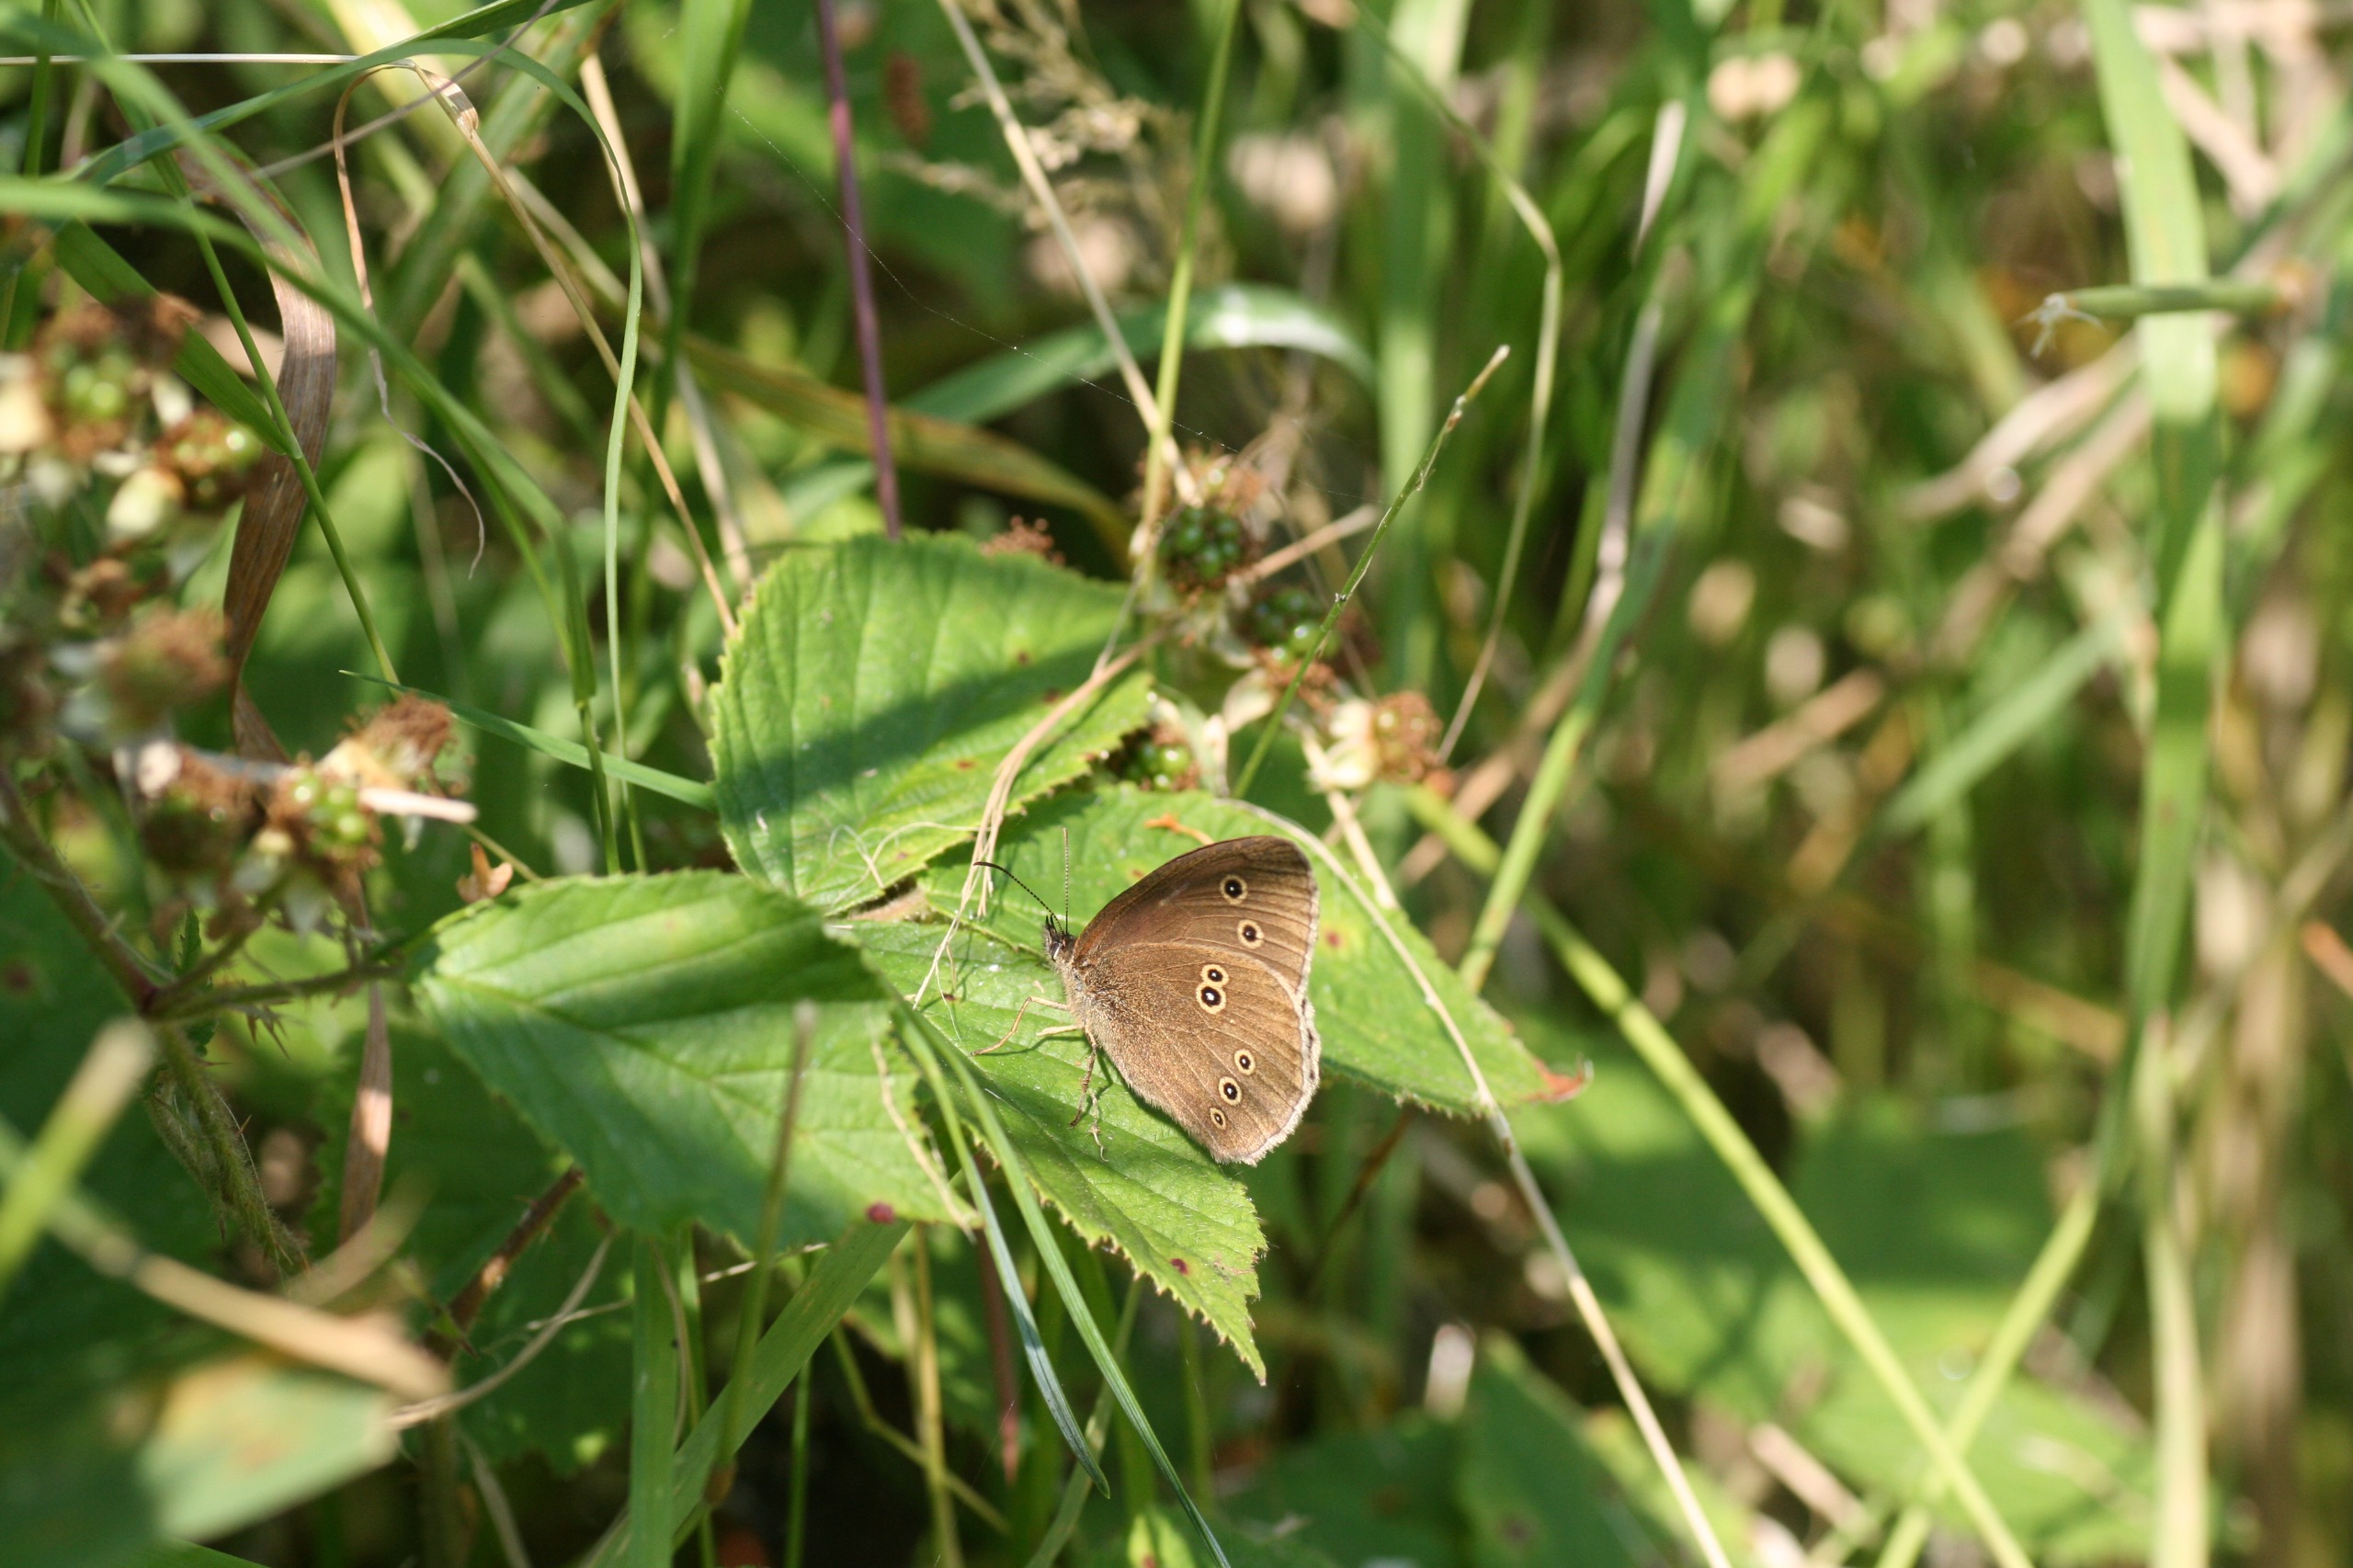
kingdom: Animalia
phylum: Arthropoda
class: Insecta
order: Lepidoptera
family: Nymphalidae
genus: Aphantopus
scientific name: Aphantopus hyperantus
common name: Engrandøje
